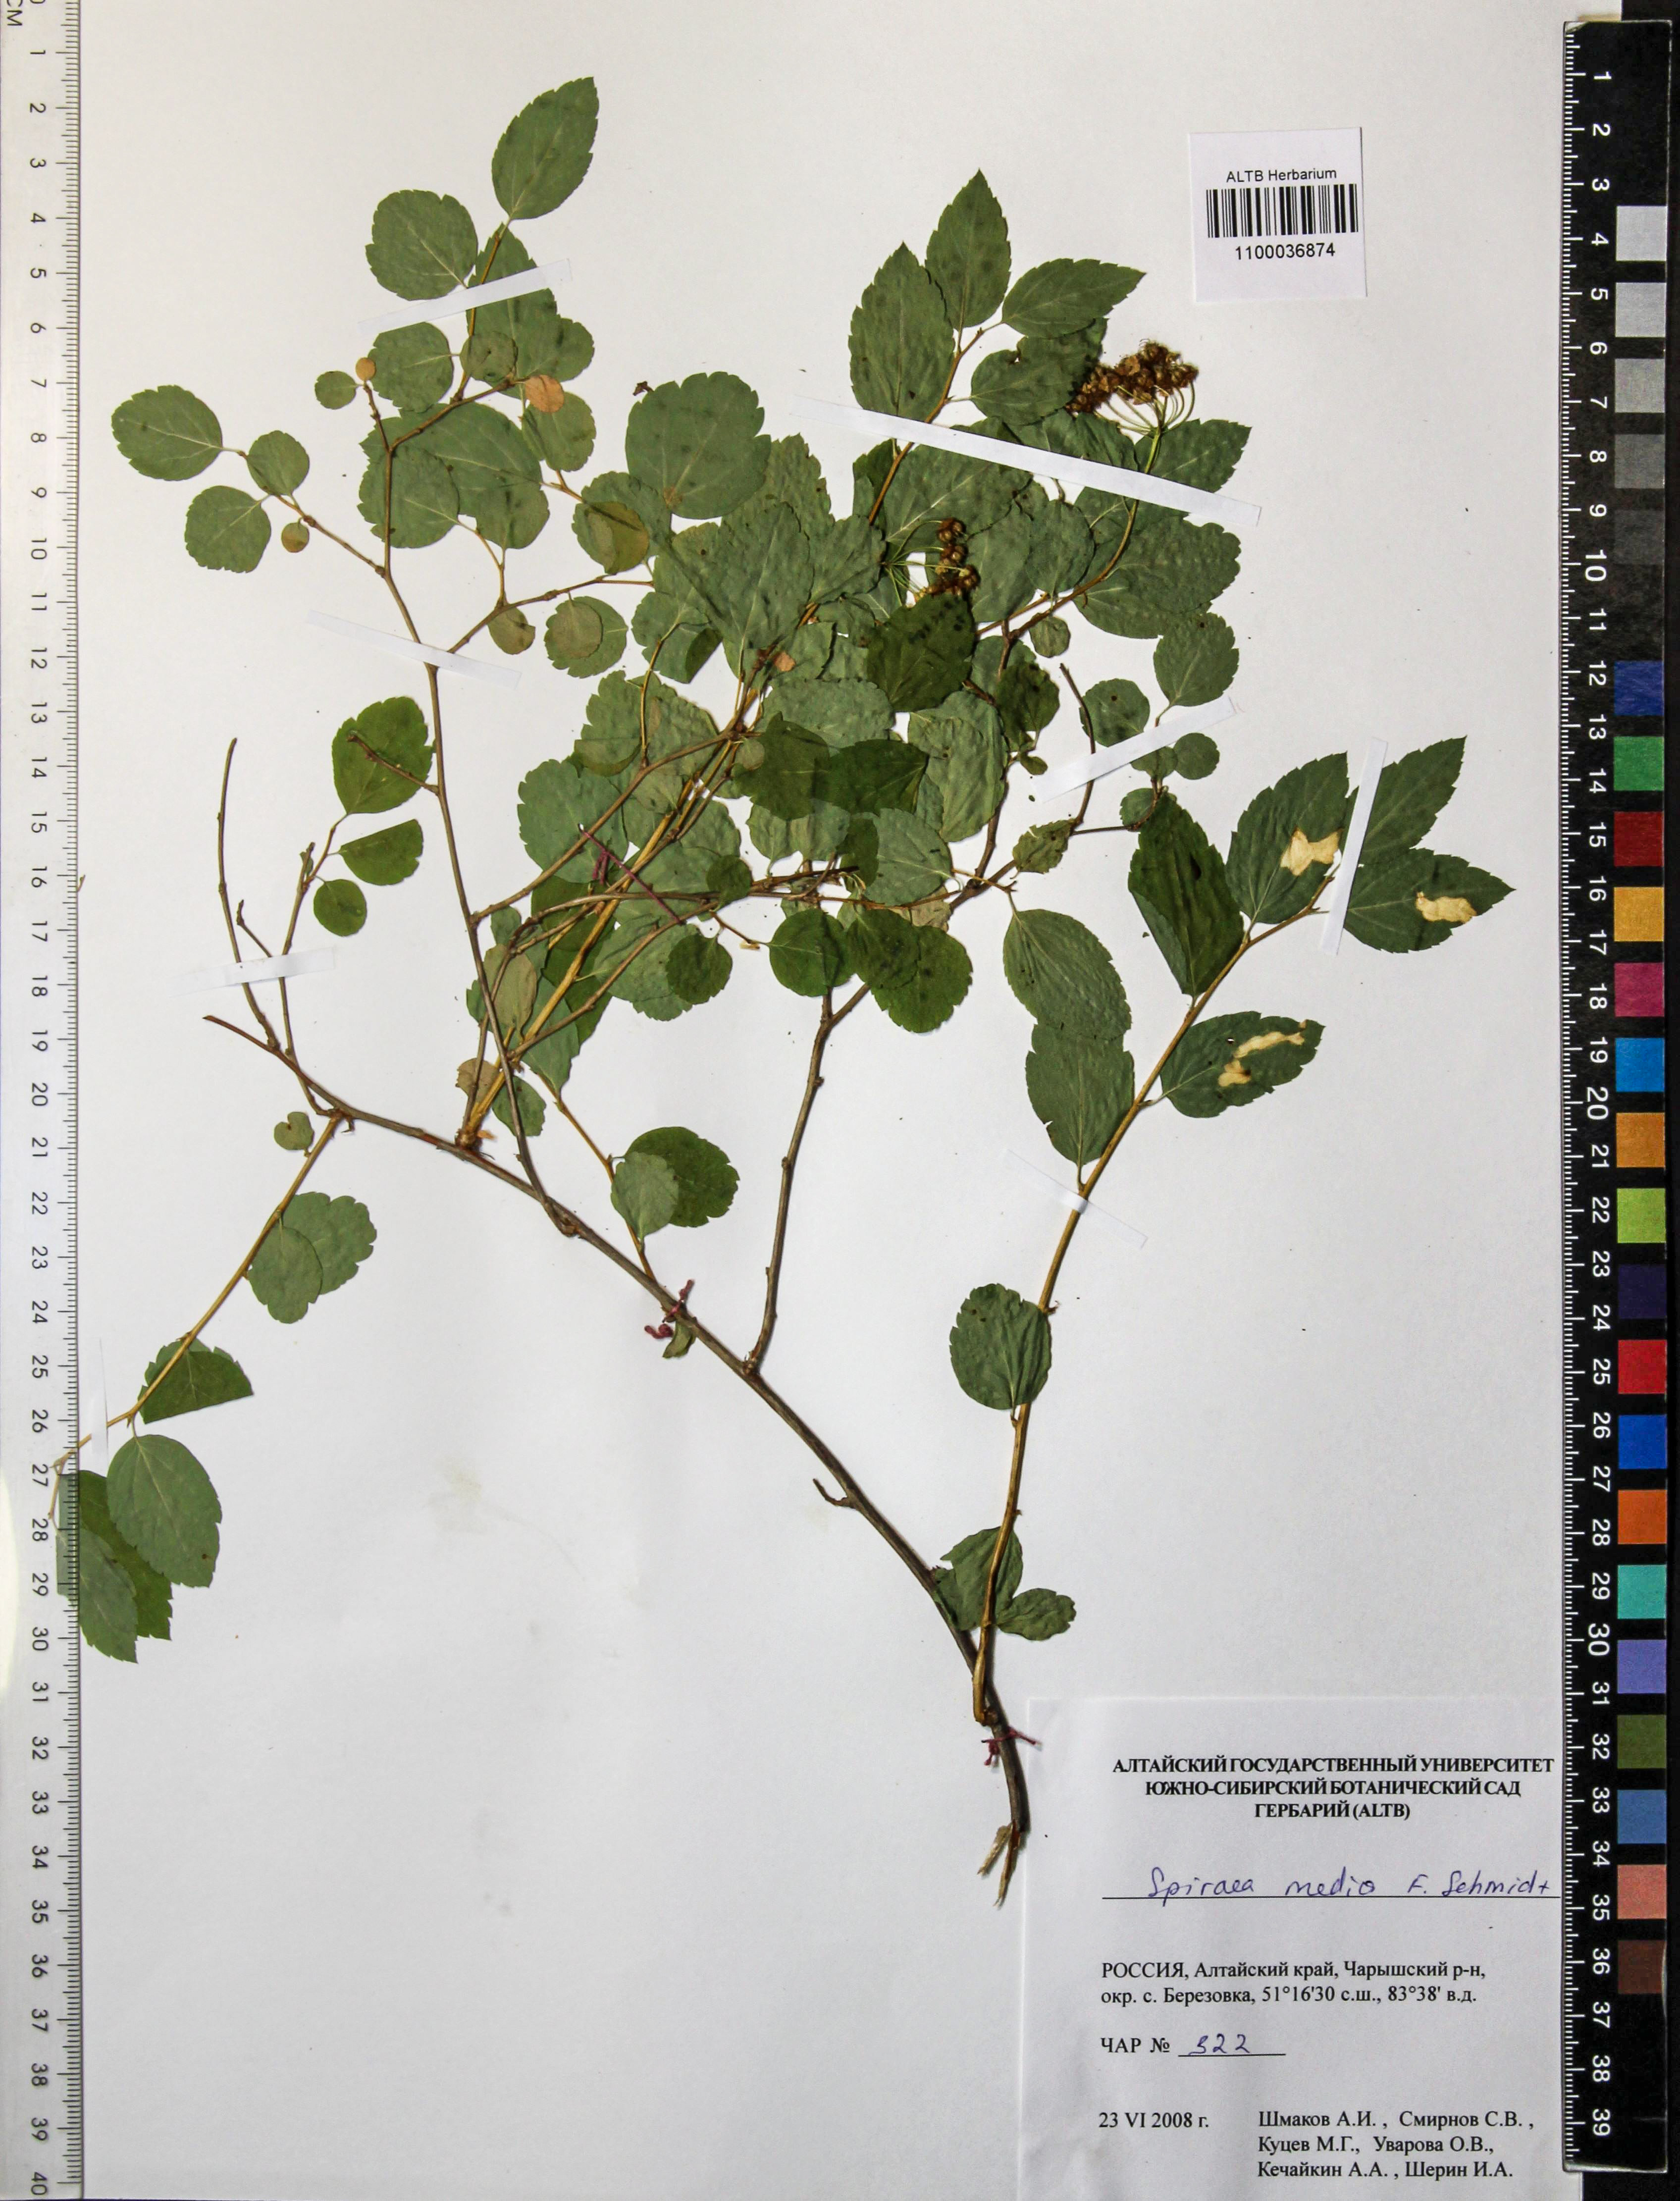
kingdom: Plantae
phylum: Tracheophyta
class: Magnoliopsida
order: Rosales
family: Rosaceae
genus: Spiraea
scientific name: Spiraea media
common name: Russian spiraea
